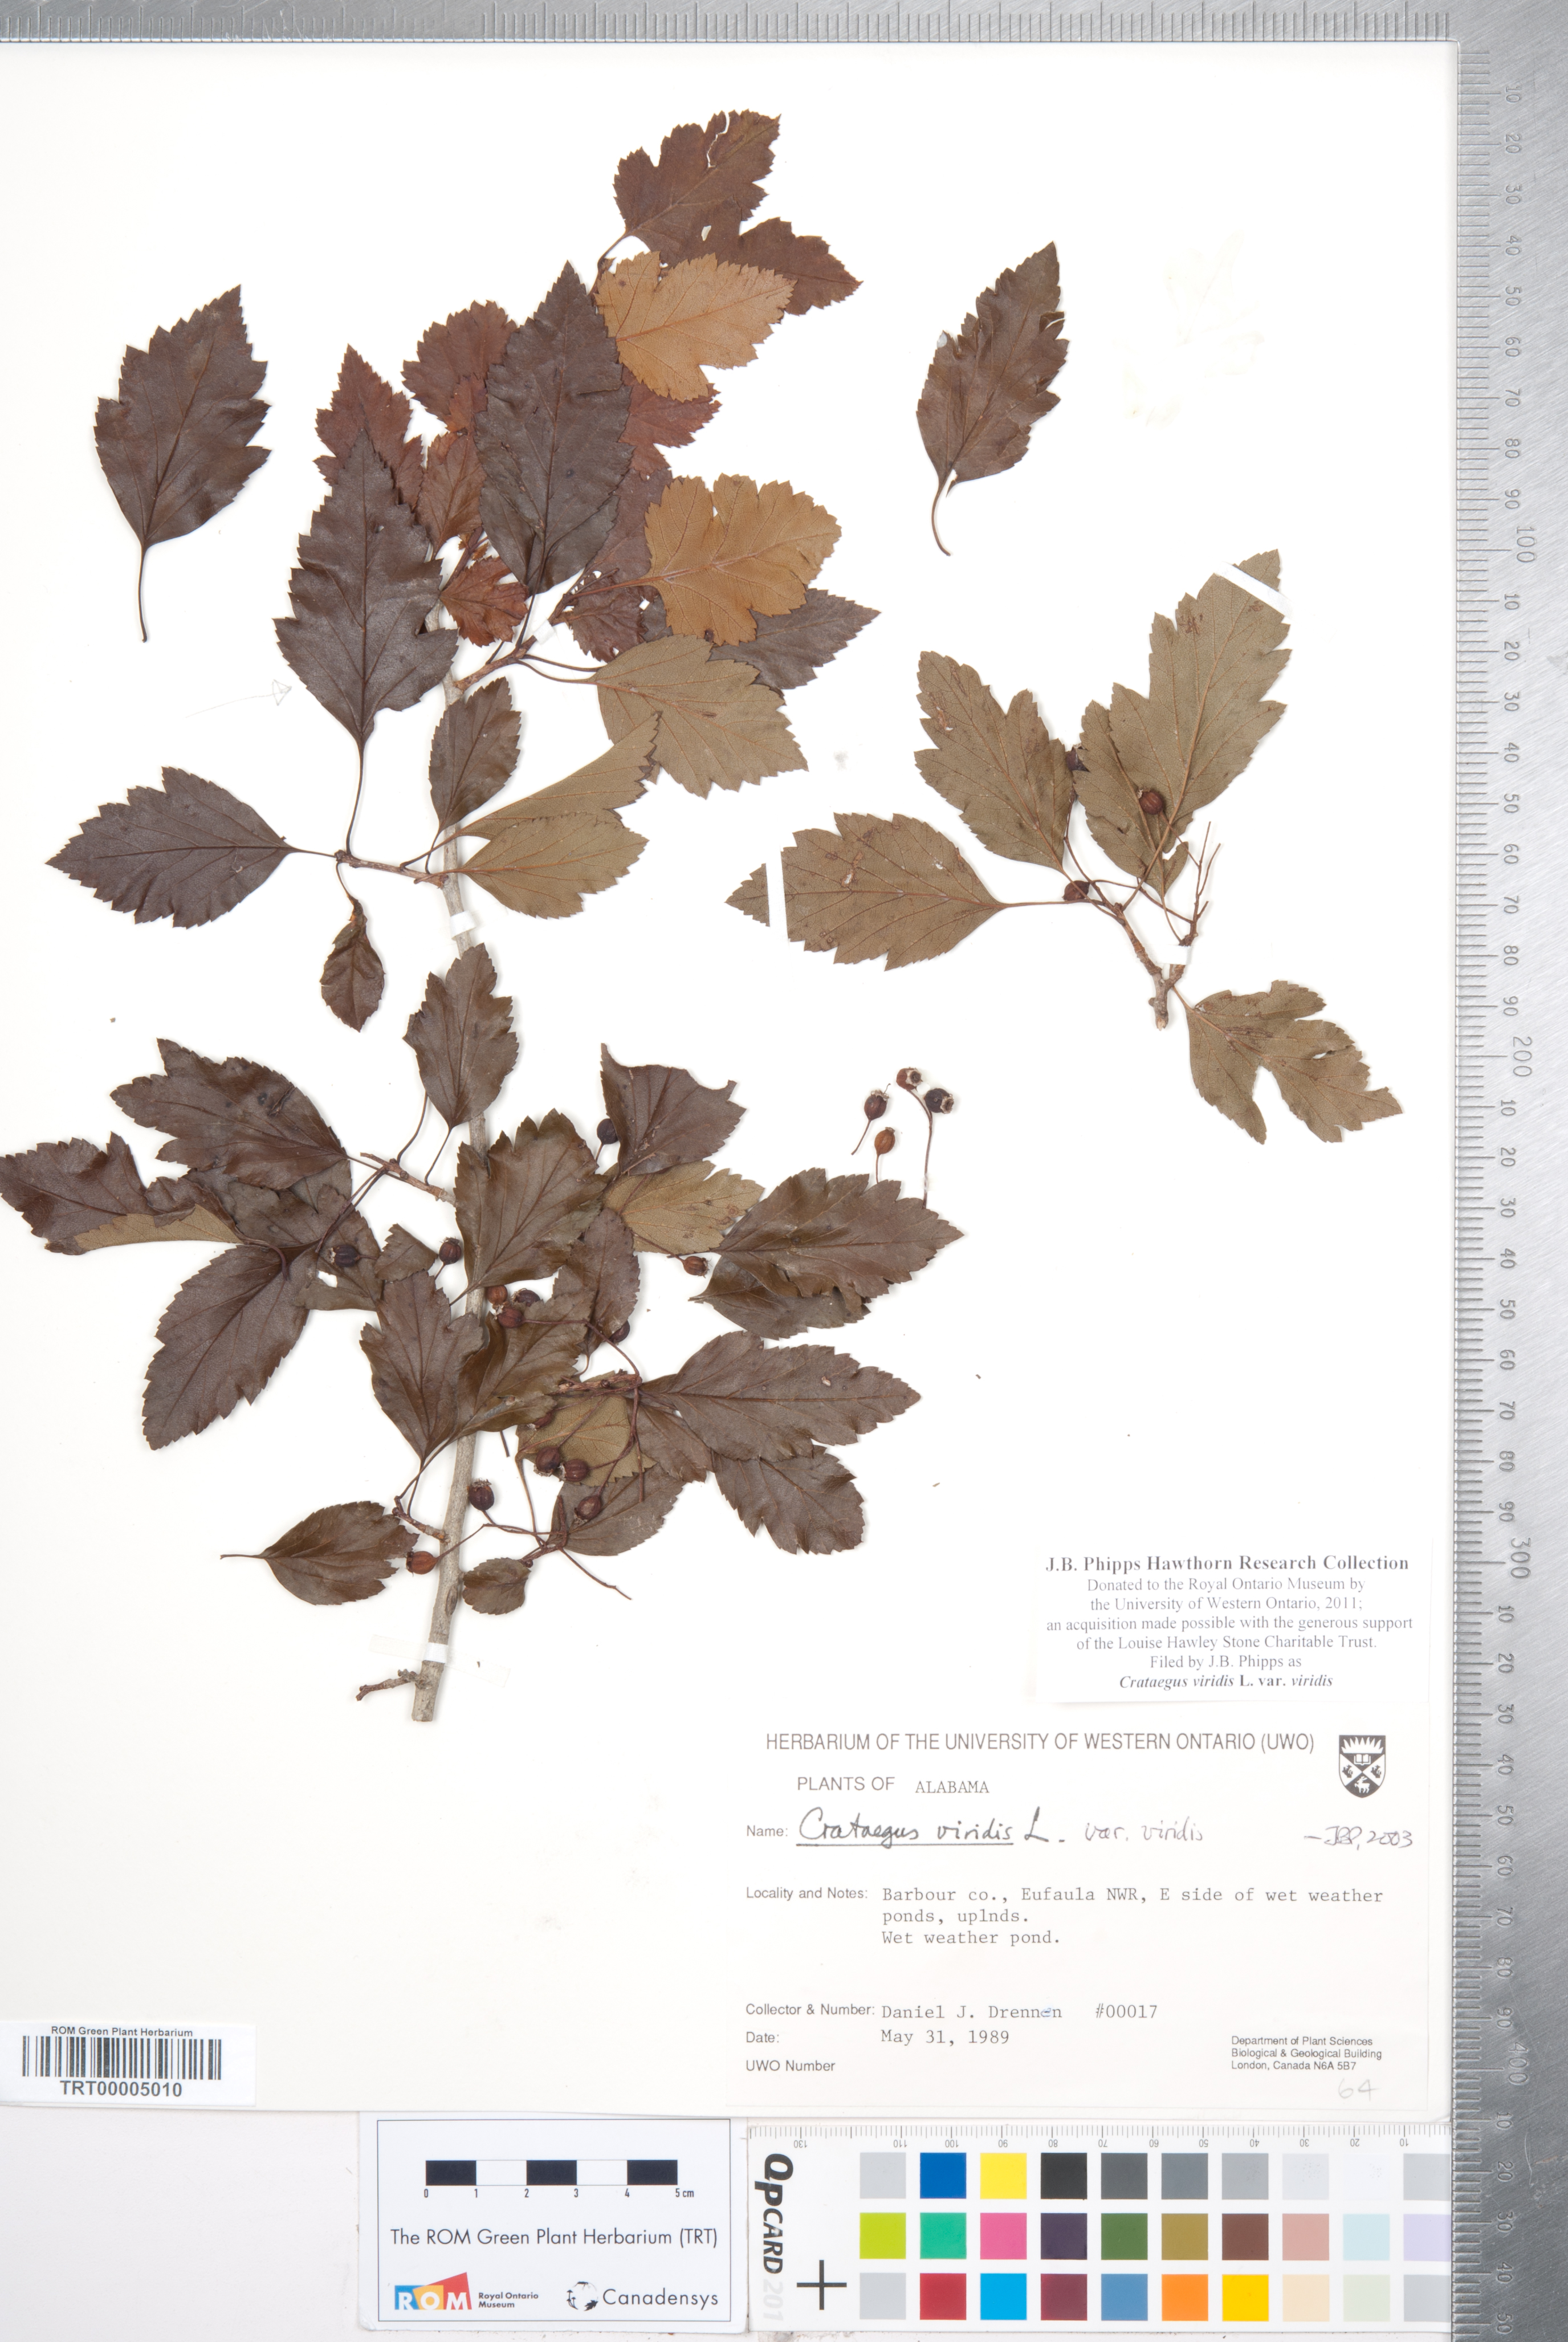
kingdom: Plantae
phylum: Tracheophyta
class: Magnoliopsida
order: Rosales
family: Rosaceae
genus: Crataegus
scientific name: Crataegus viridis
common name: Southernthorn
